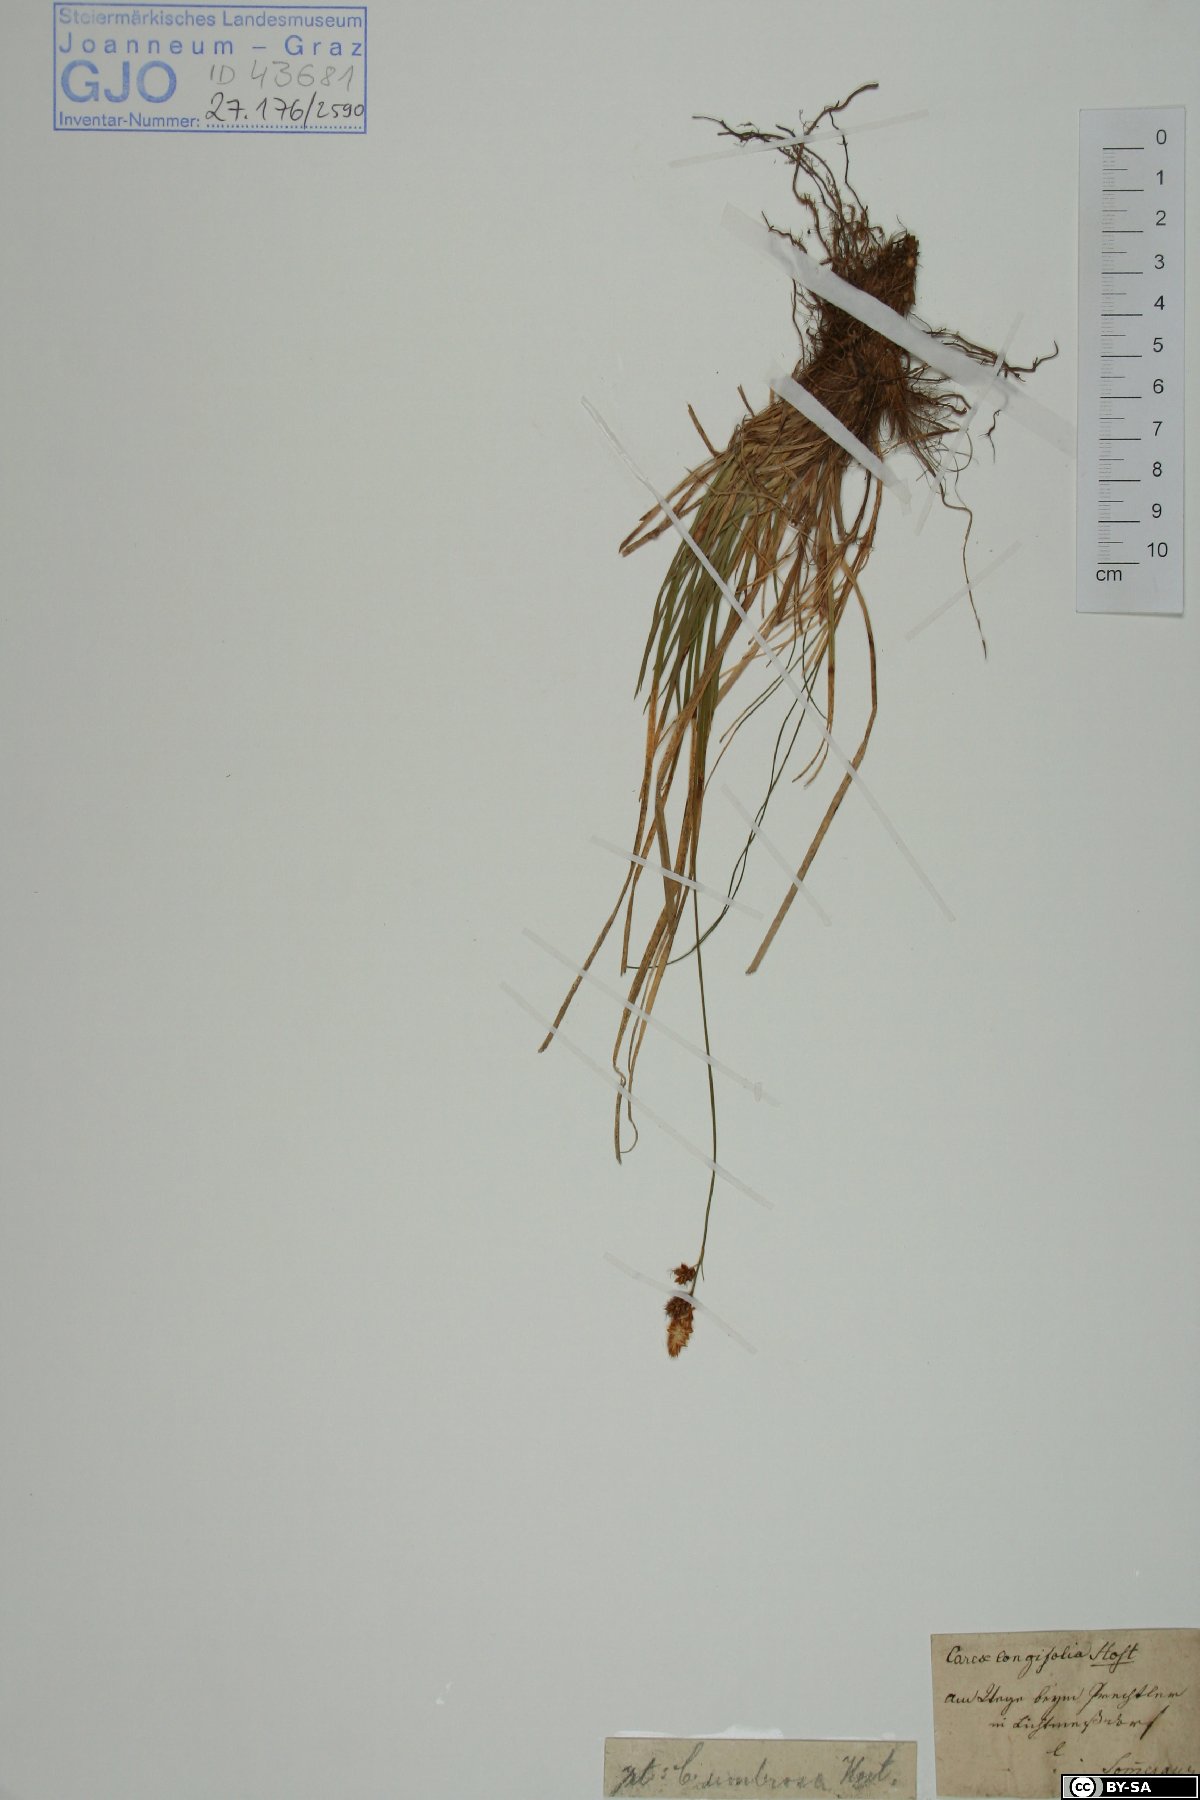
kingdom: Plantae
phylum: Tracheophyta
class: Liliopsida
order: Poales
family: Cyperaceae
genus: Carex
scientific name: Carex umbrosa
